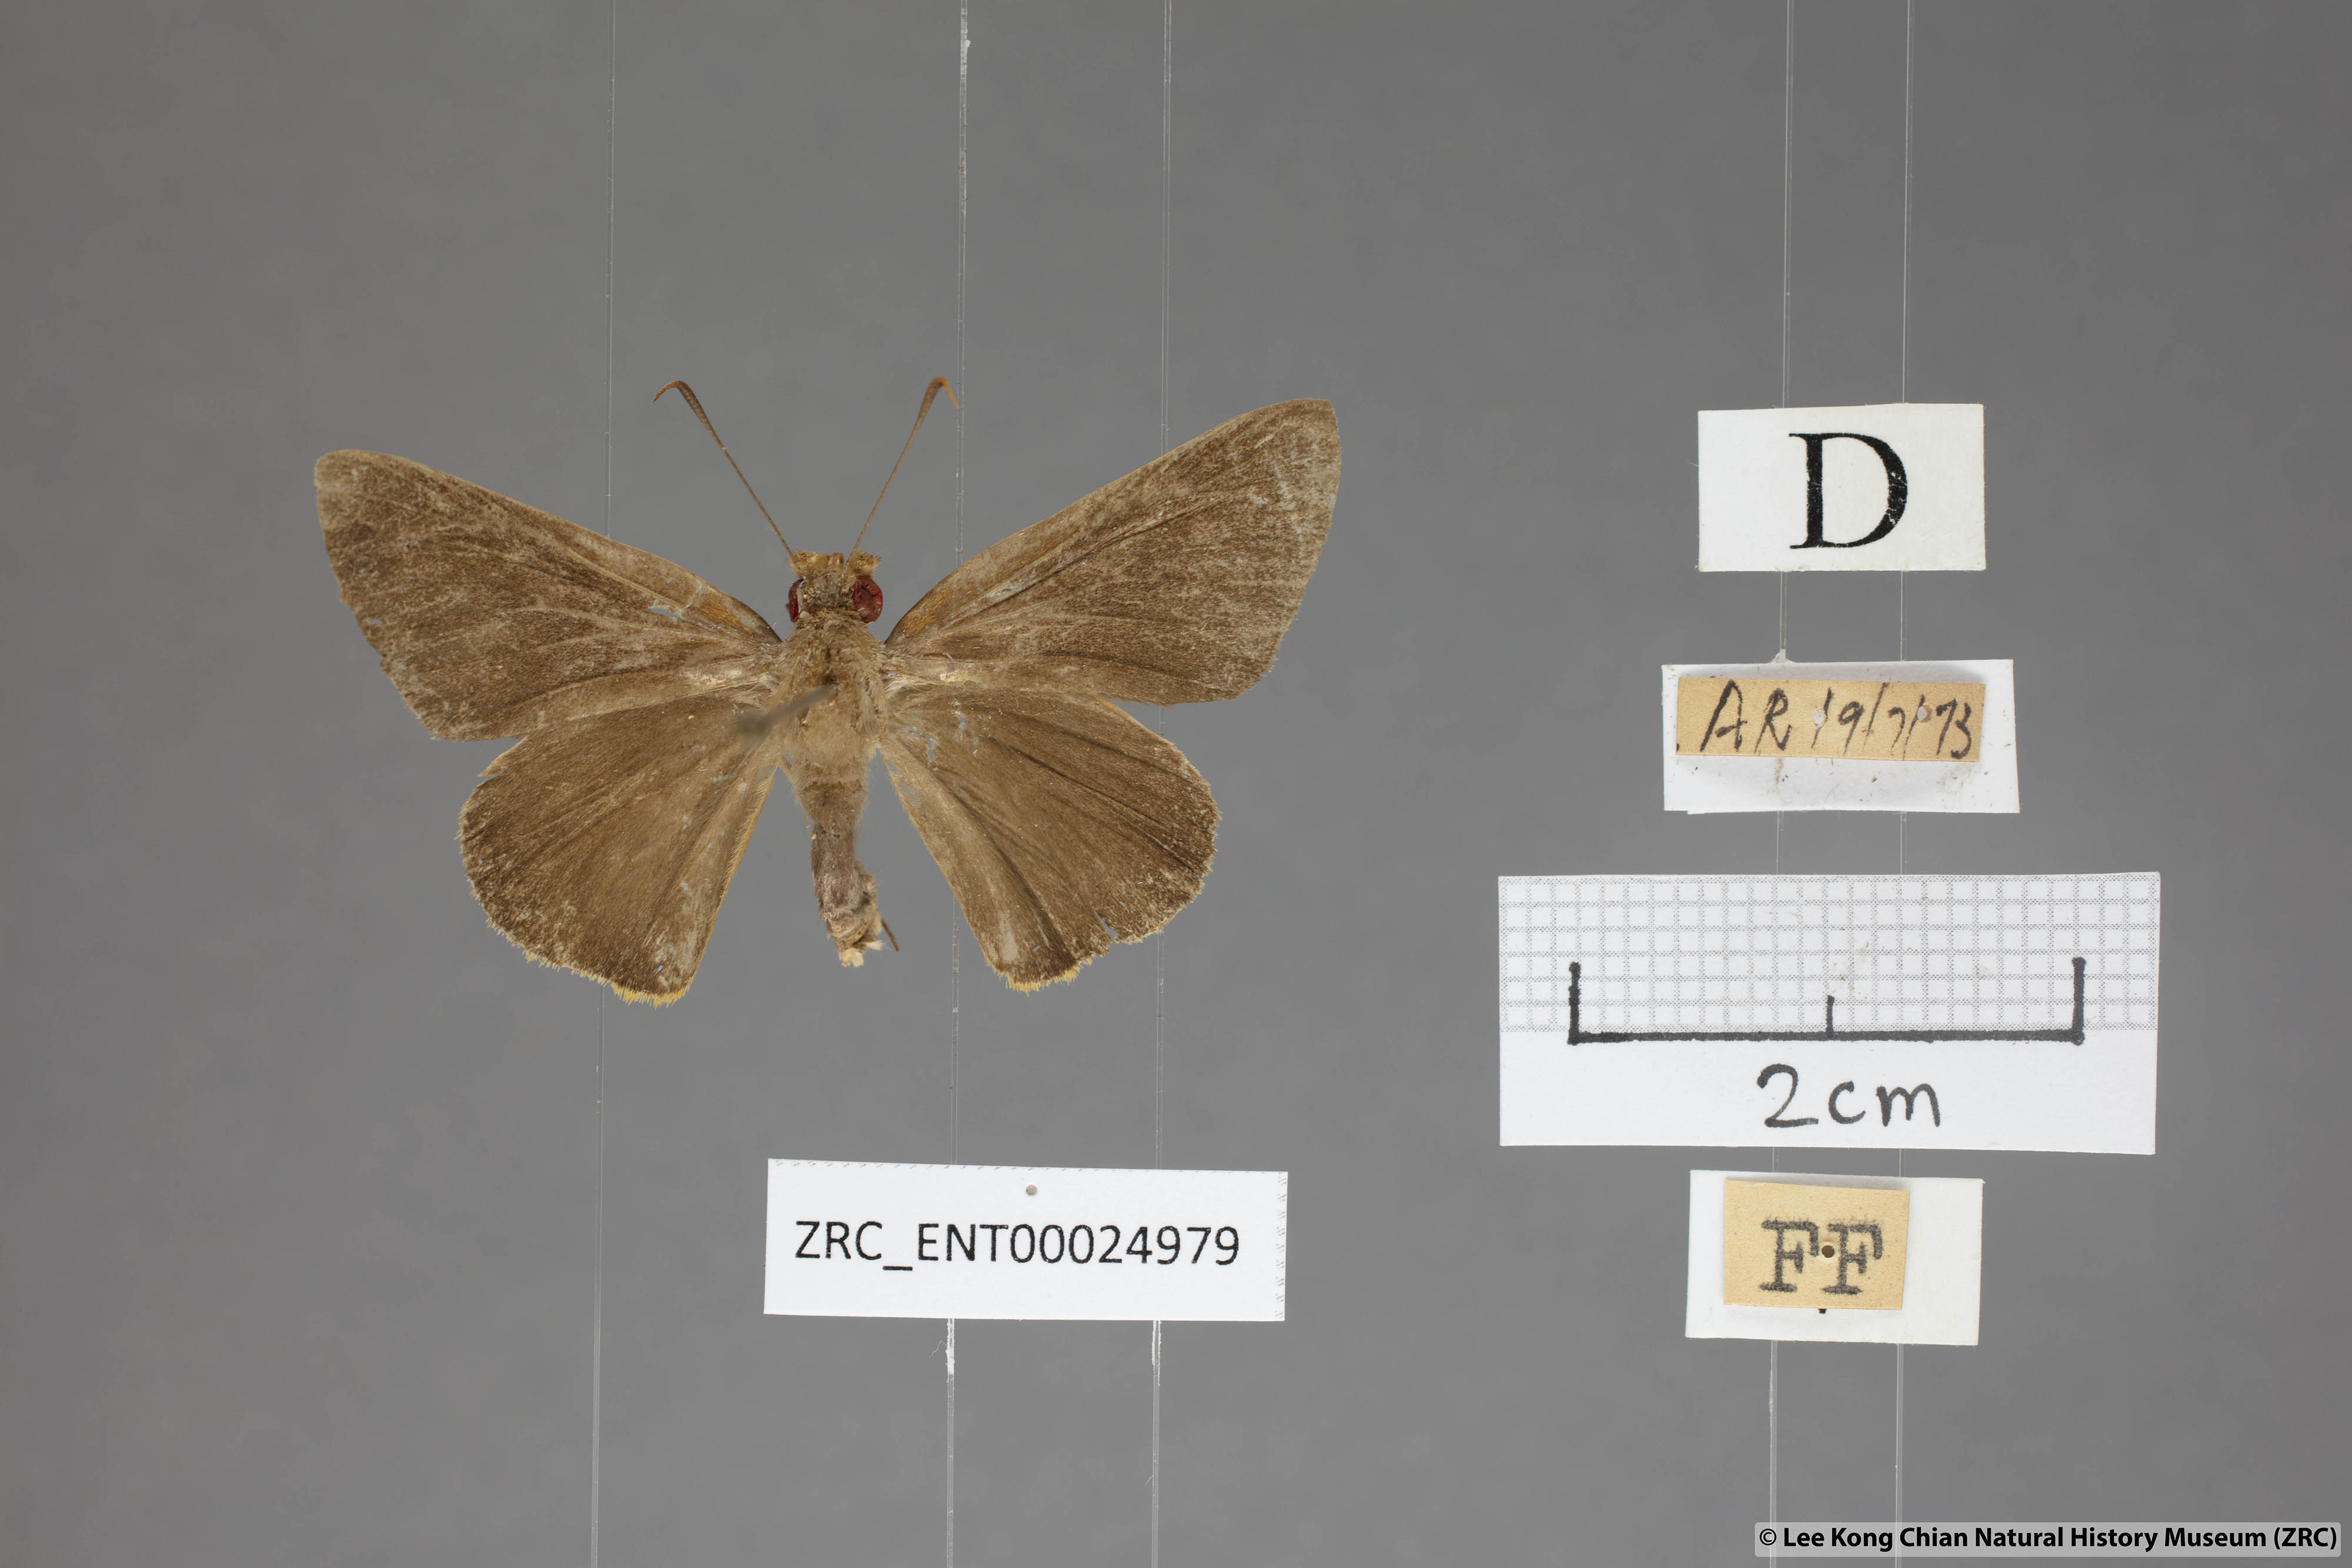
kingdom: Animalia
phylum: Arthropoda
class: Insecta
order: Lepidoptera
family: Hesperiidae
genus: Matapa
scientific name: Matapa druna
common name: Grey-brand redeye
